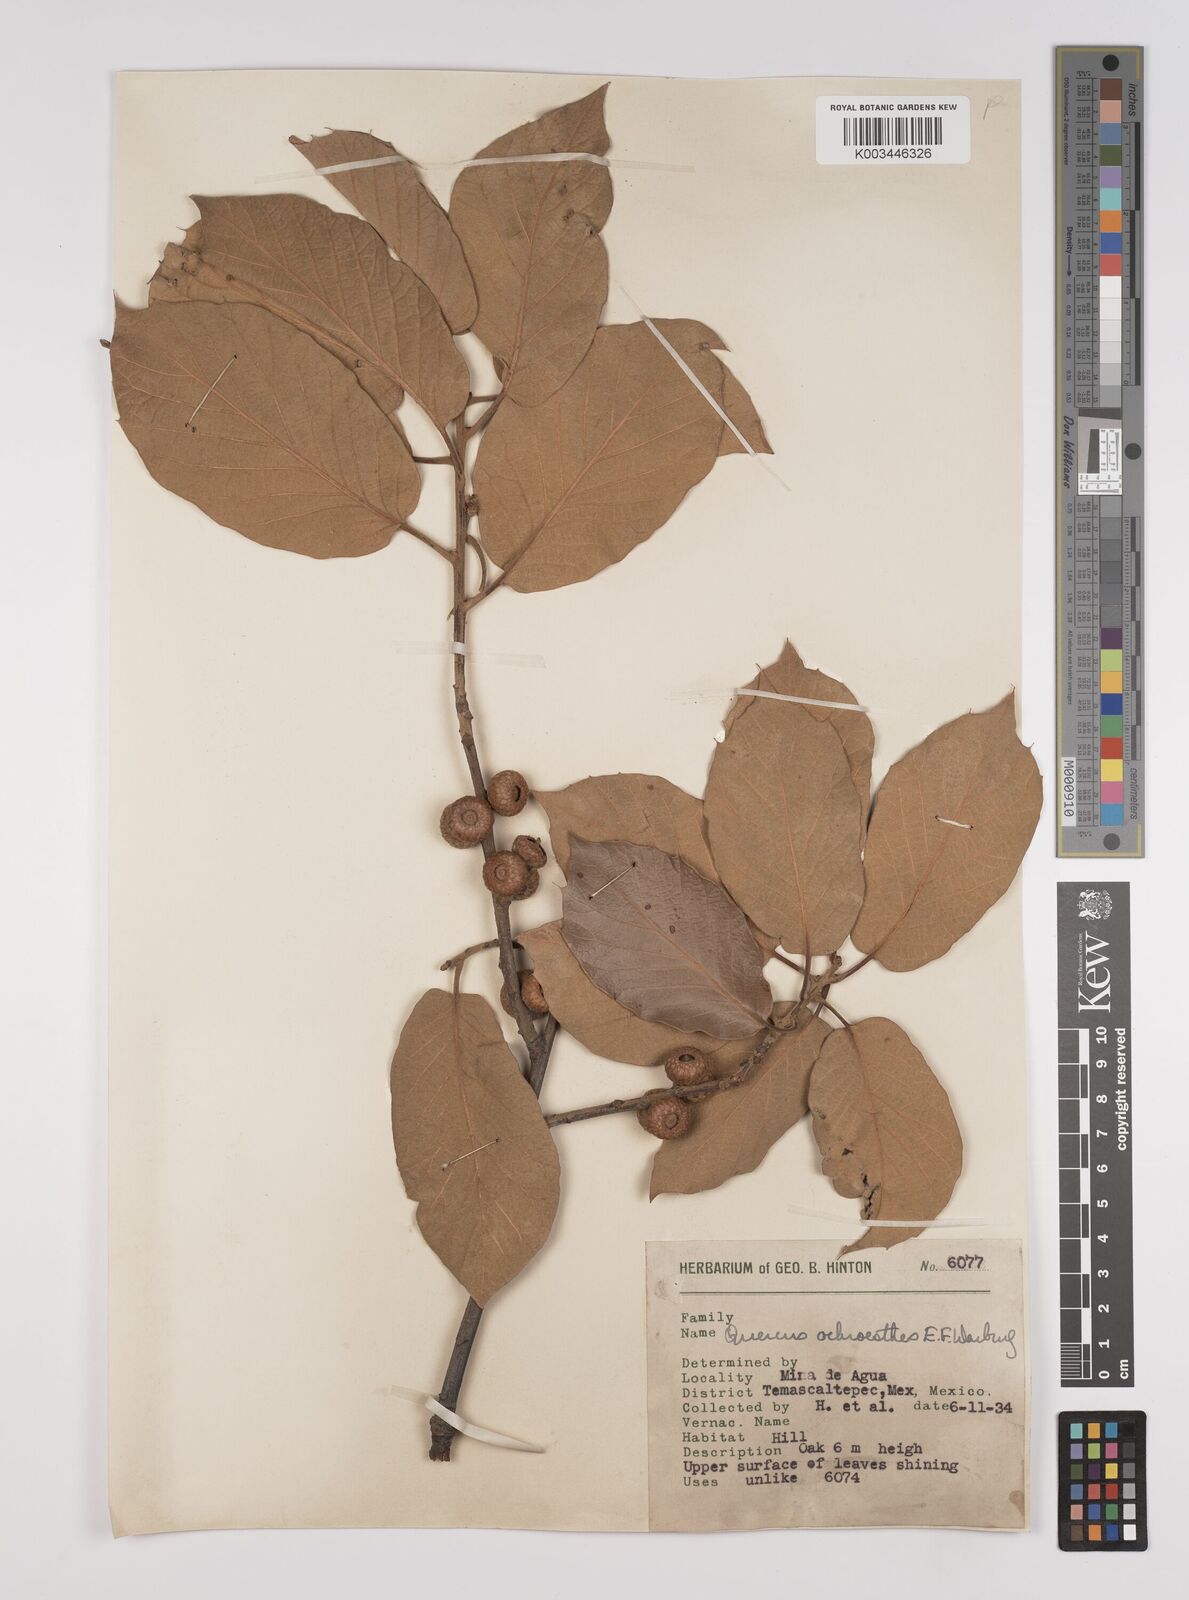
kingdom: Plantae
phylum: Tracheophyta
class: Magnoliopsida
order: Fagales
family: Fagaceae
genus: Quercus
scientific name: Quercus hintonii
